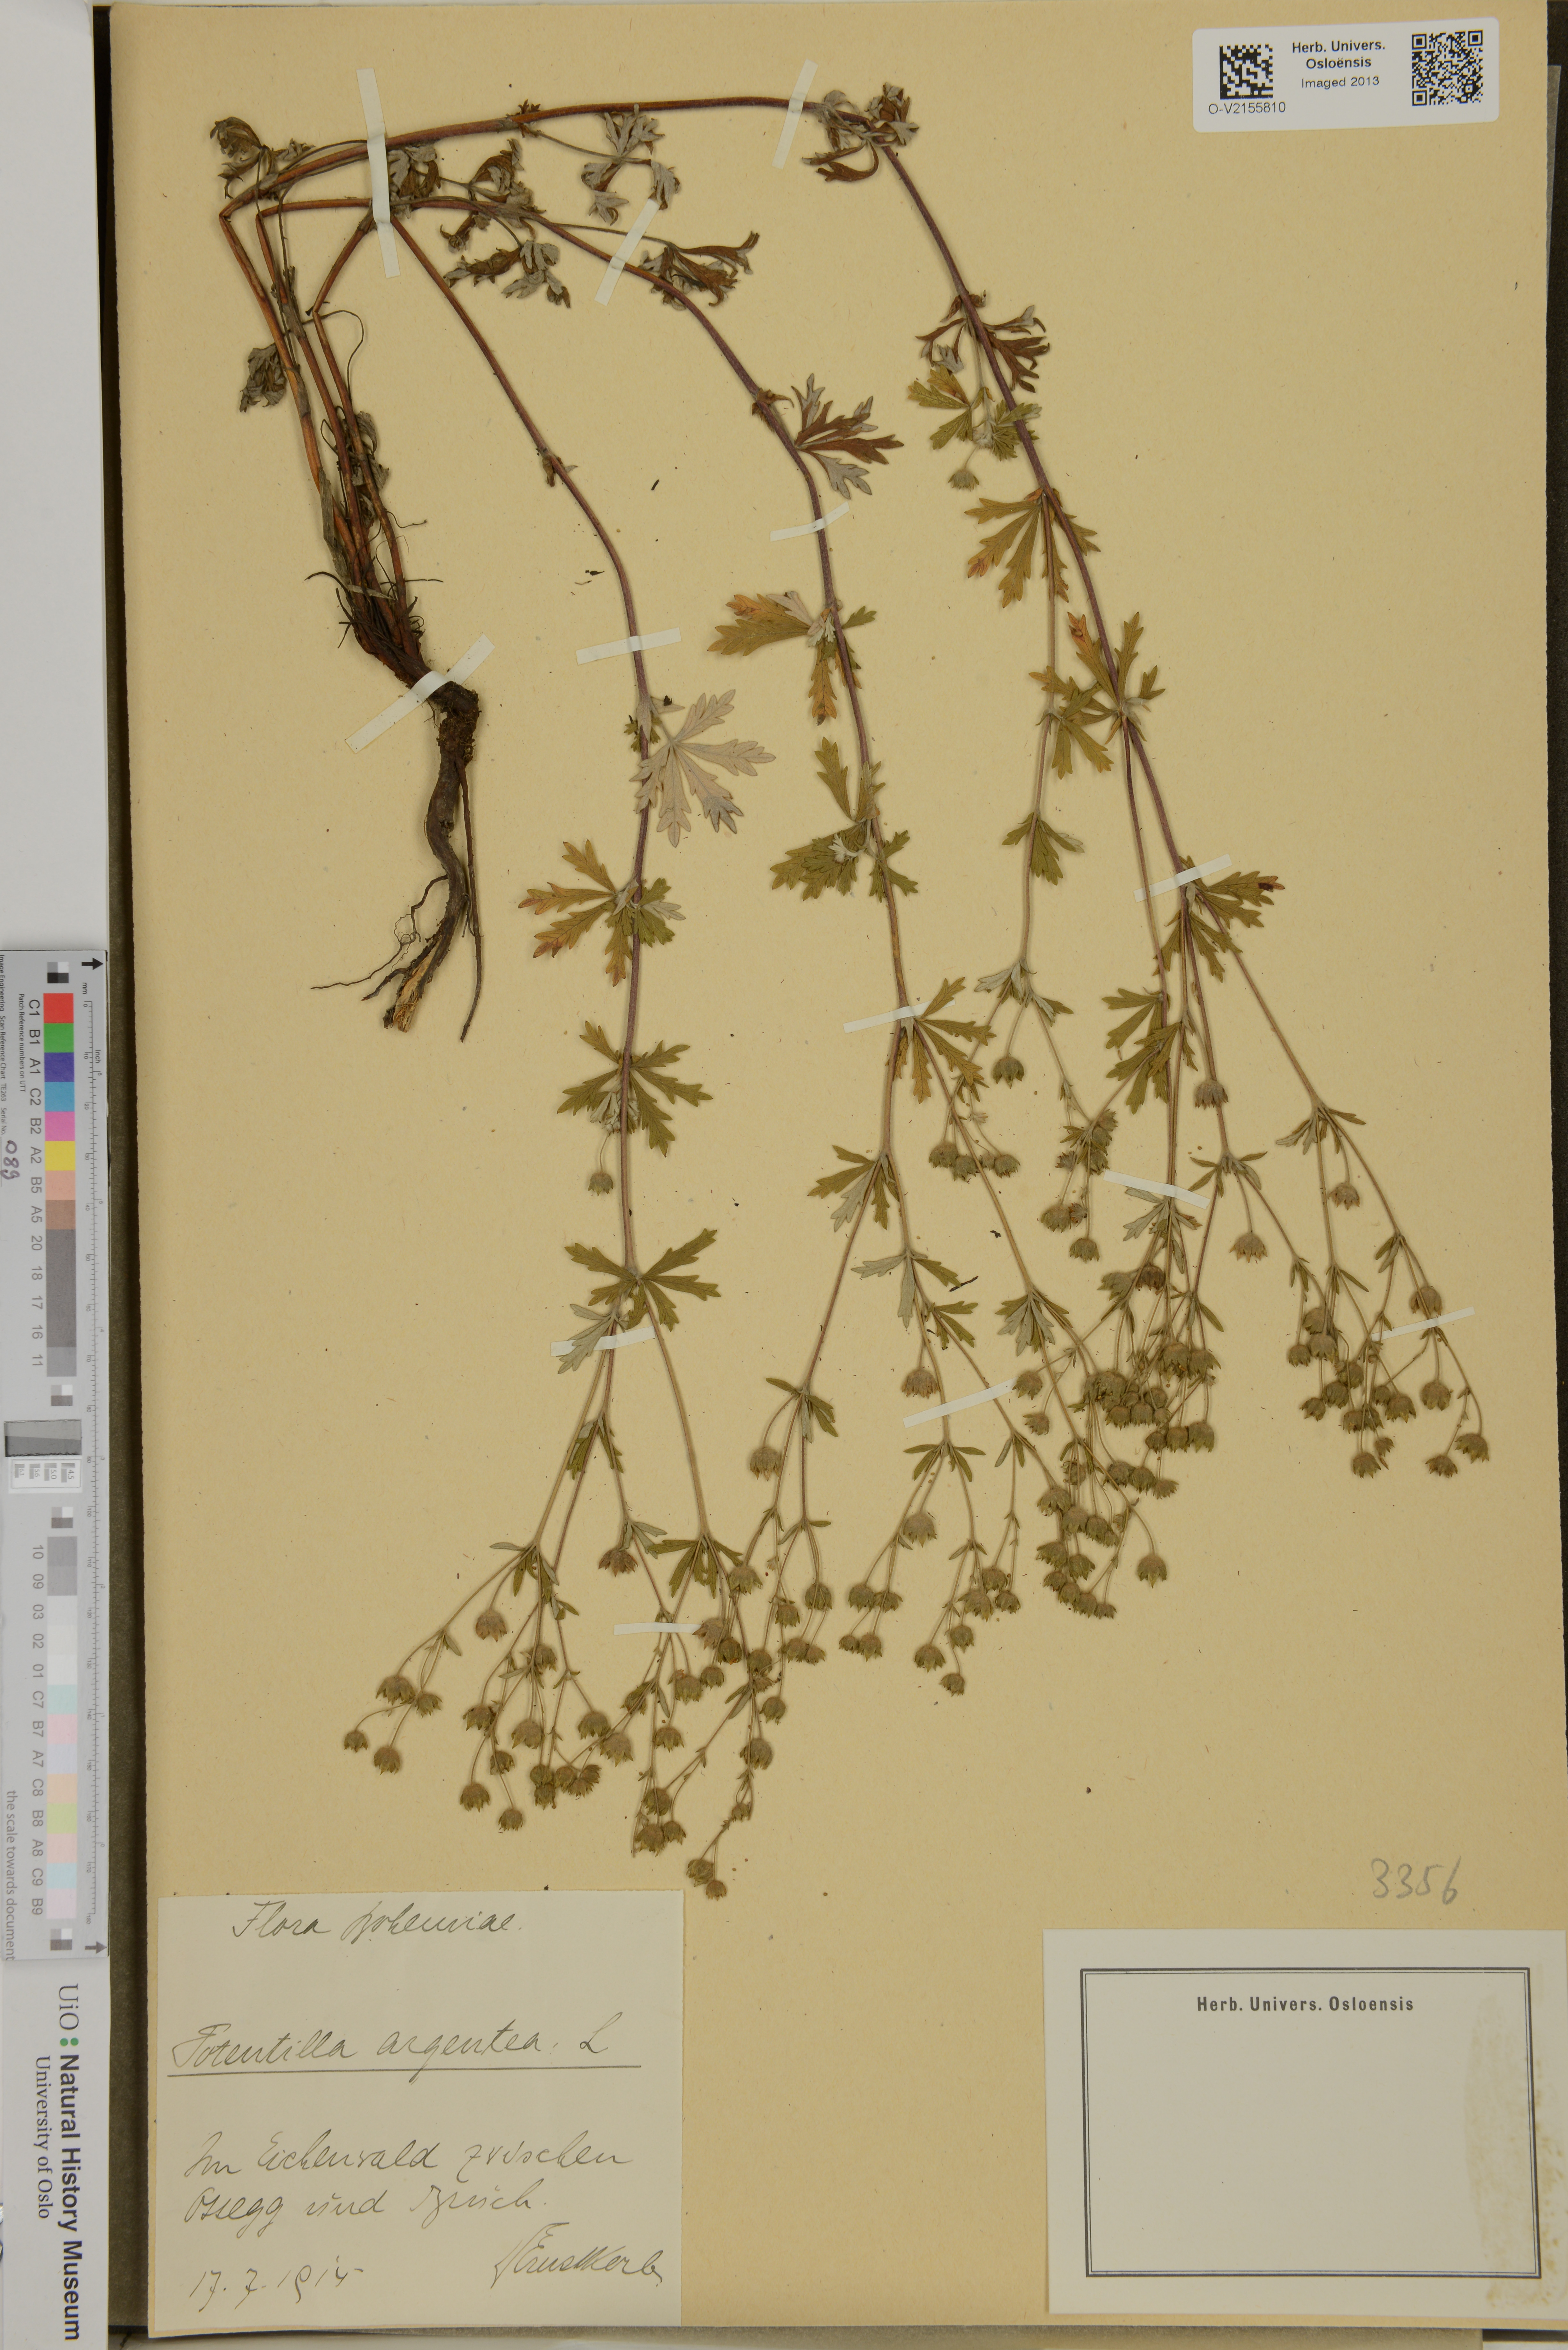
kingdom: Plantae
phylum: Tracheophyta
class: Magnoliopsida
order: Rosales
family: Rosaceae
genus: Potentilla
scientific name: Potentilla argentea
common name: Hoary cinquefoil
